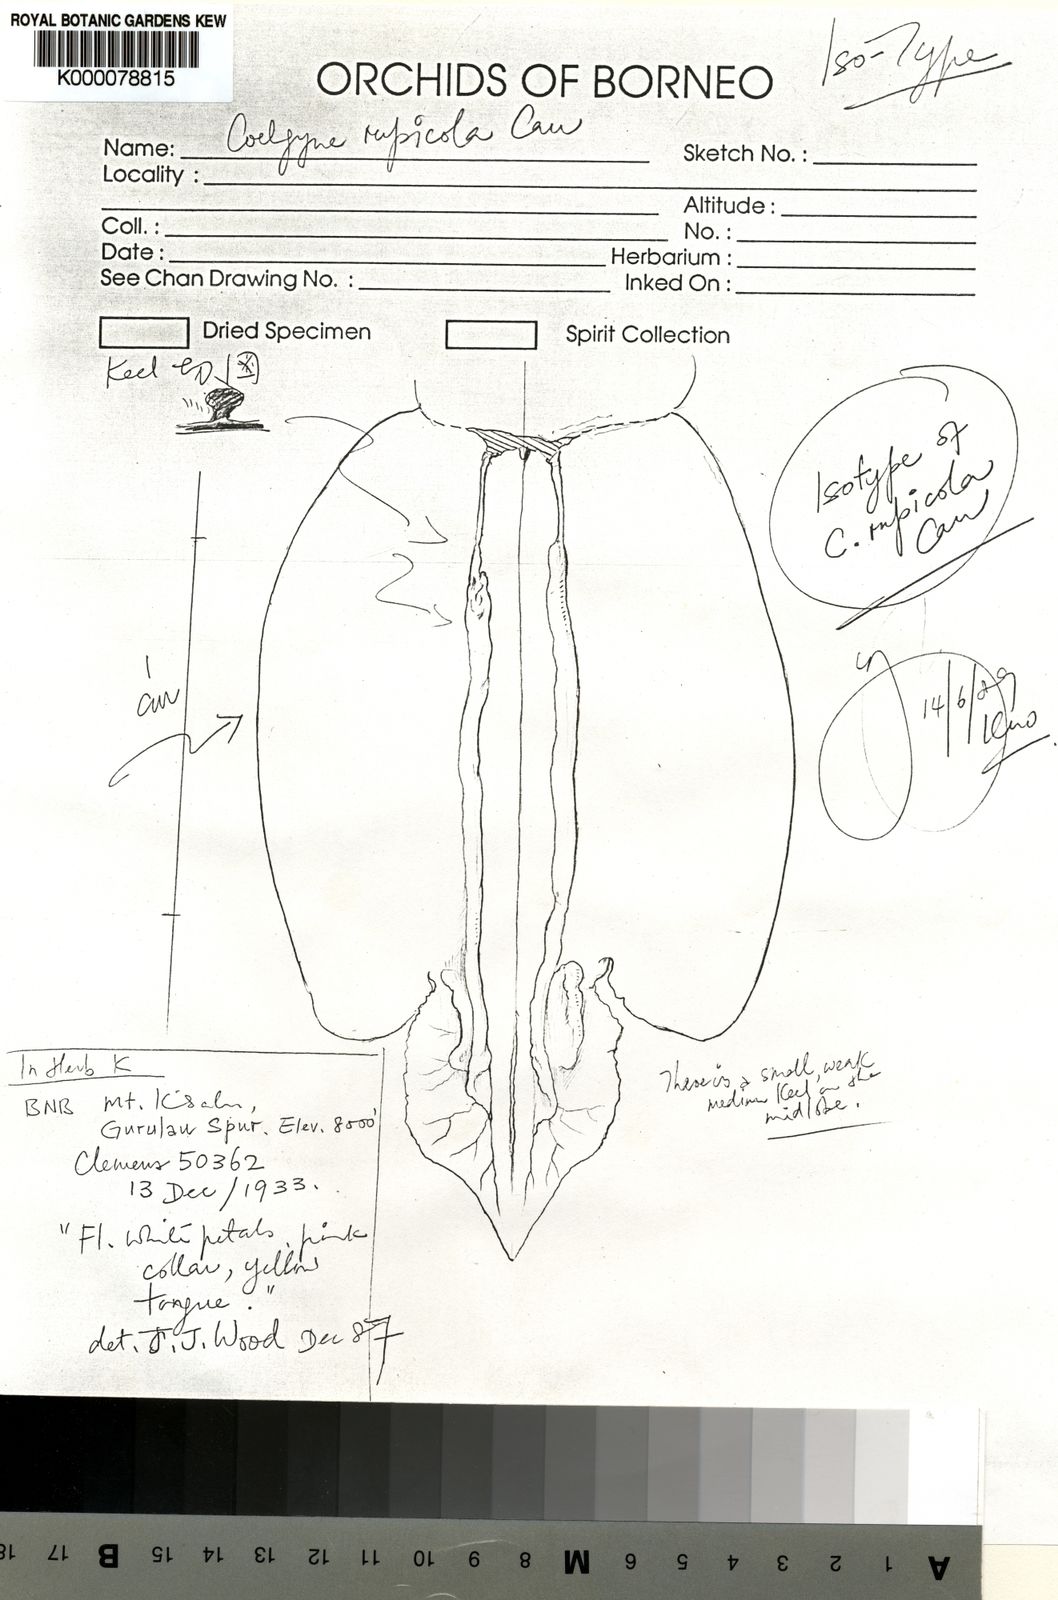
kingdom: Plantae
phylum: Tracheophyta
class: Liliopsida
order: Asparagales
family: Orchidaceae
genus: Coelogyne
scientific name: Coelogyne rupicola
